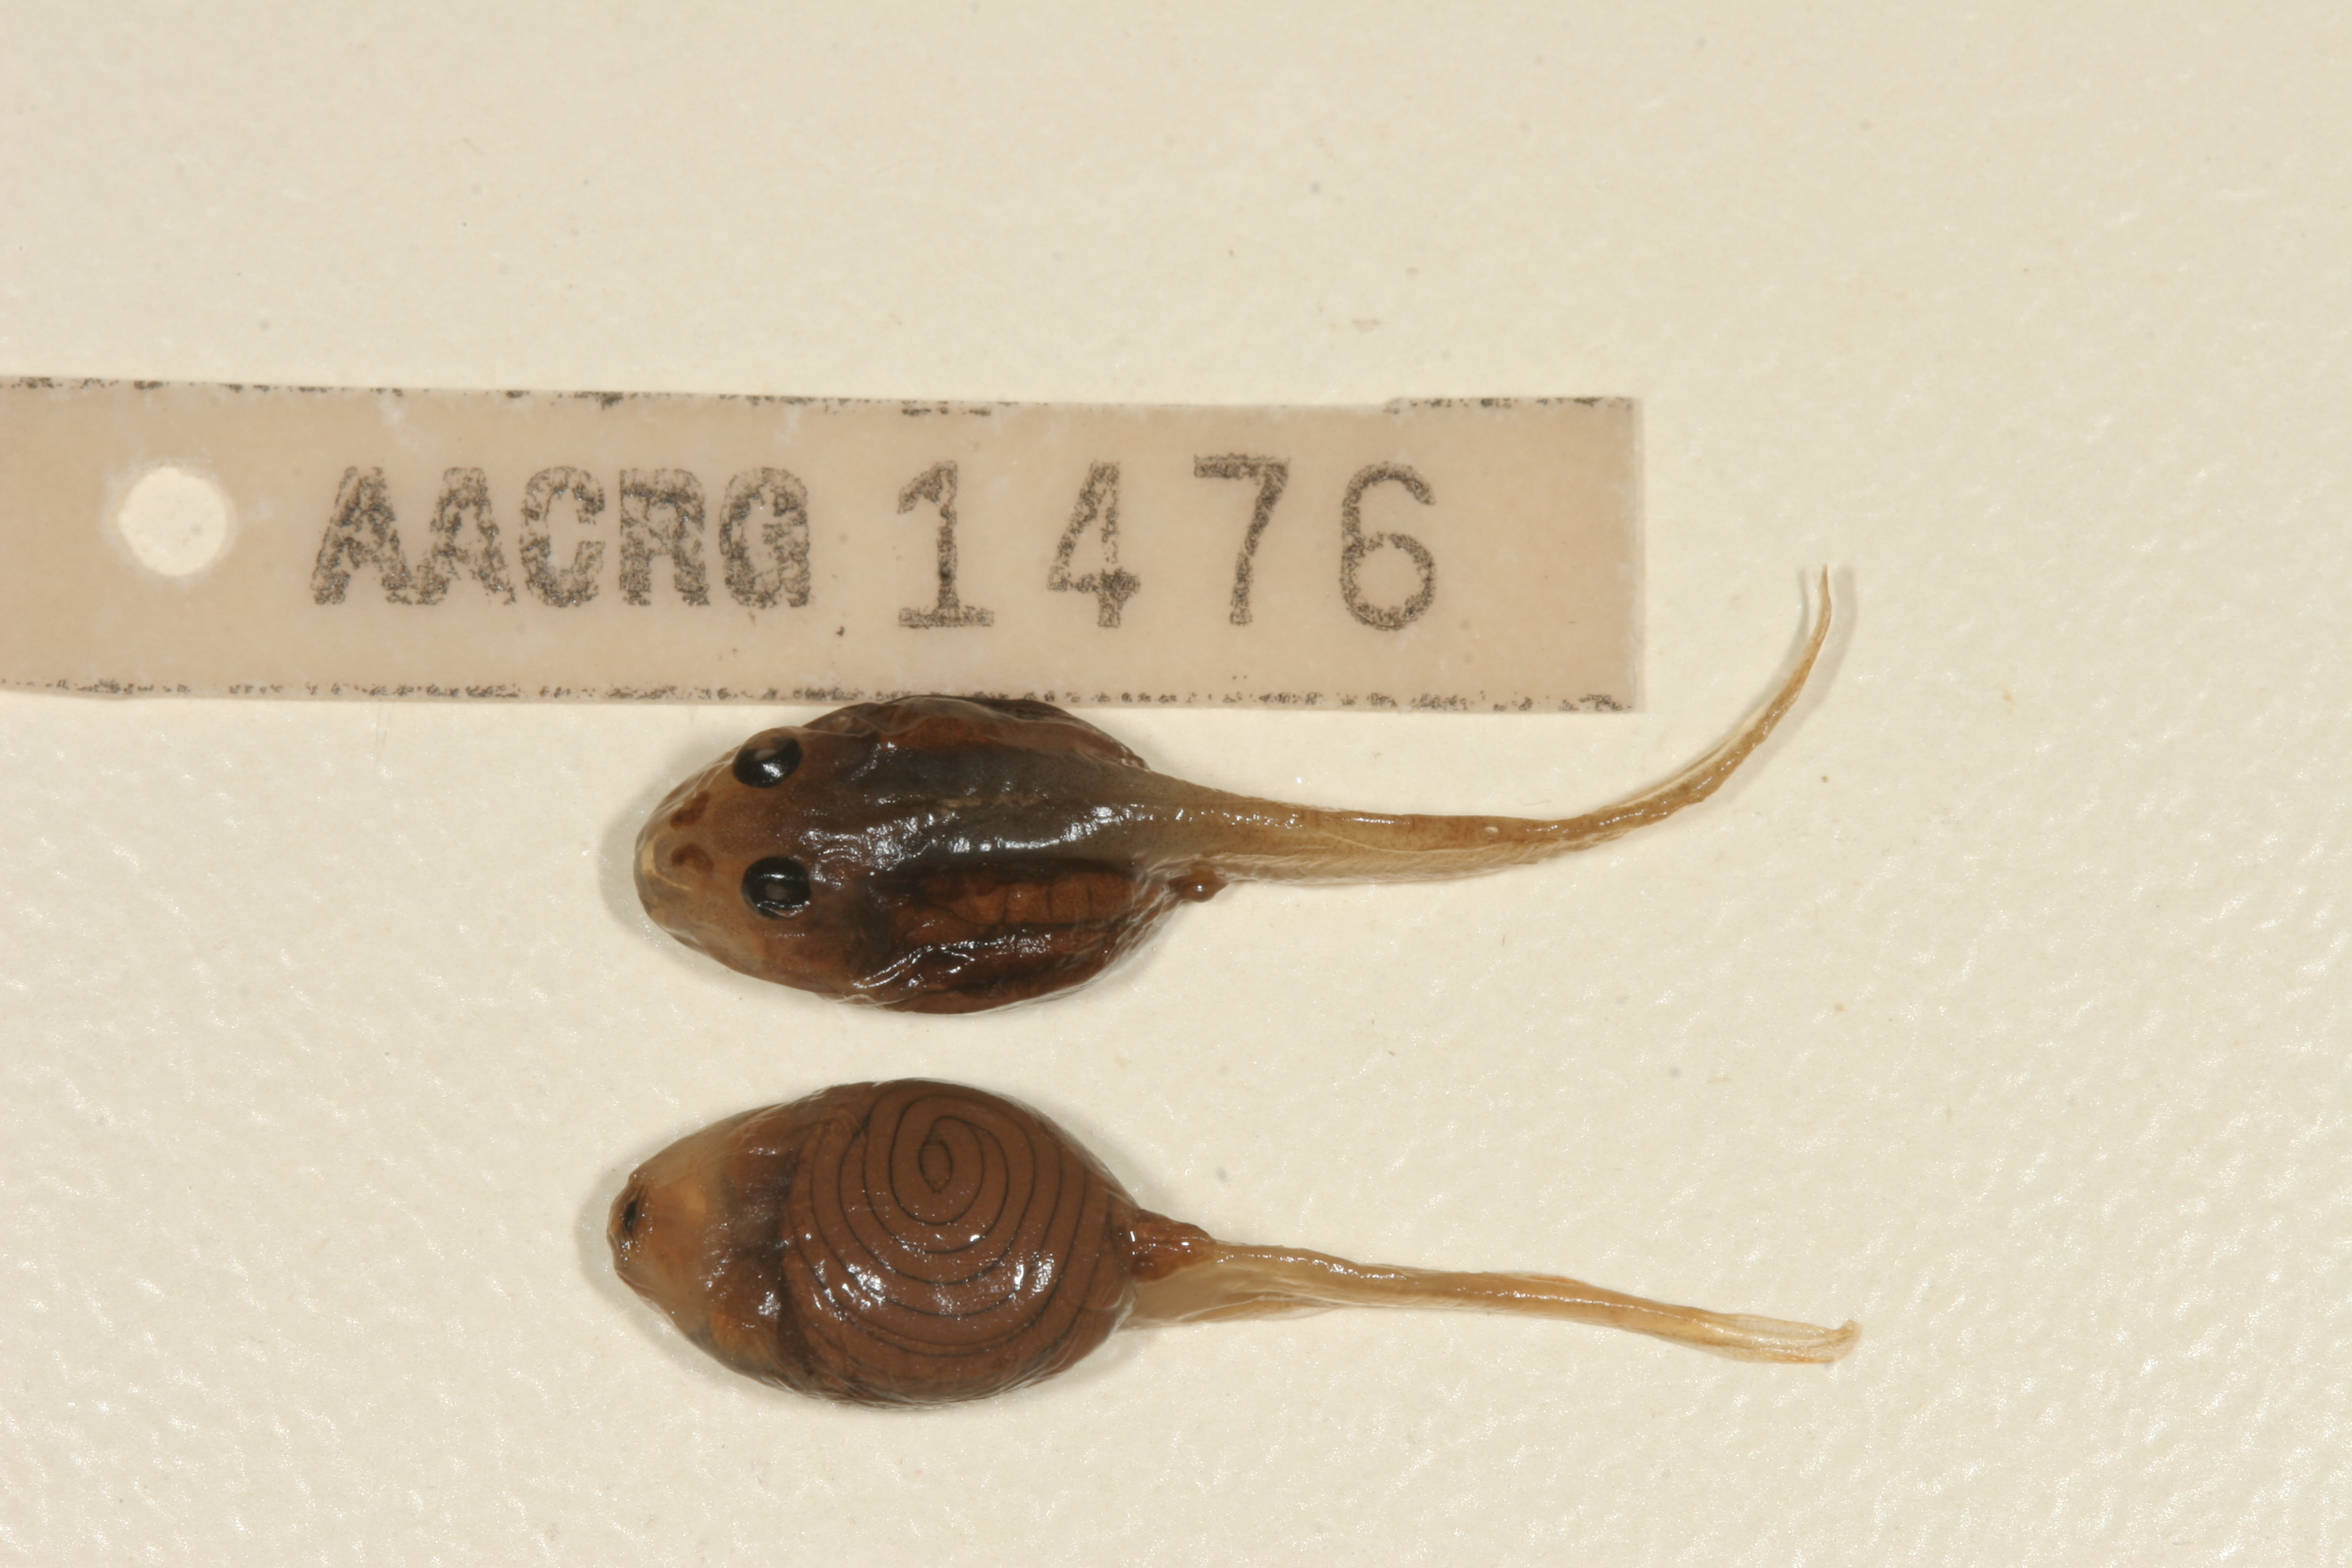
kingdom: Animalia
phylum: Chordata
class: Amphibia
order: Anura
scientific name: Anura
